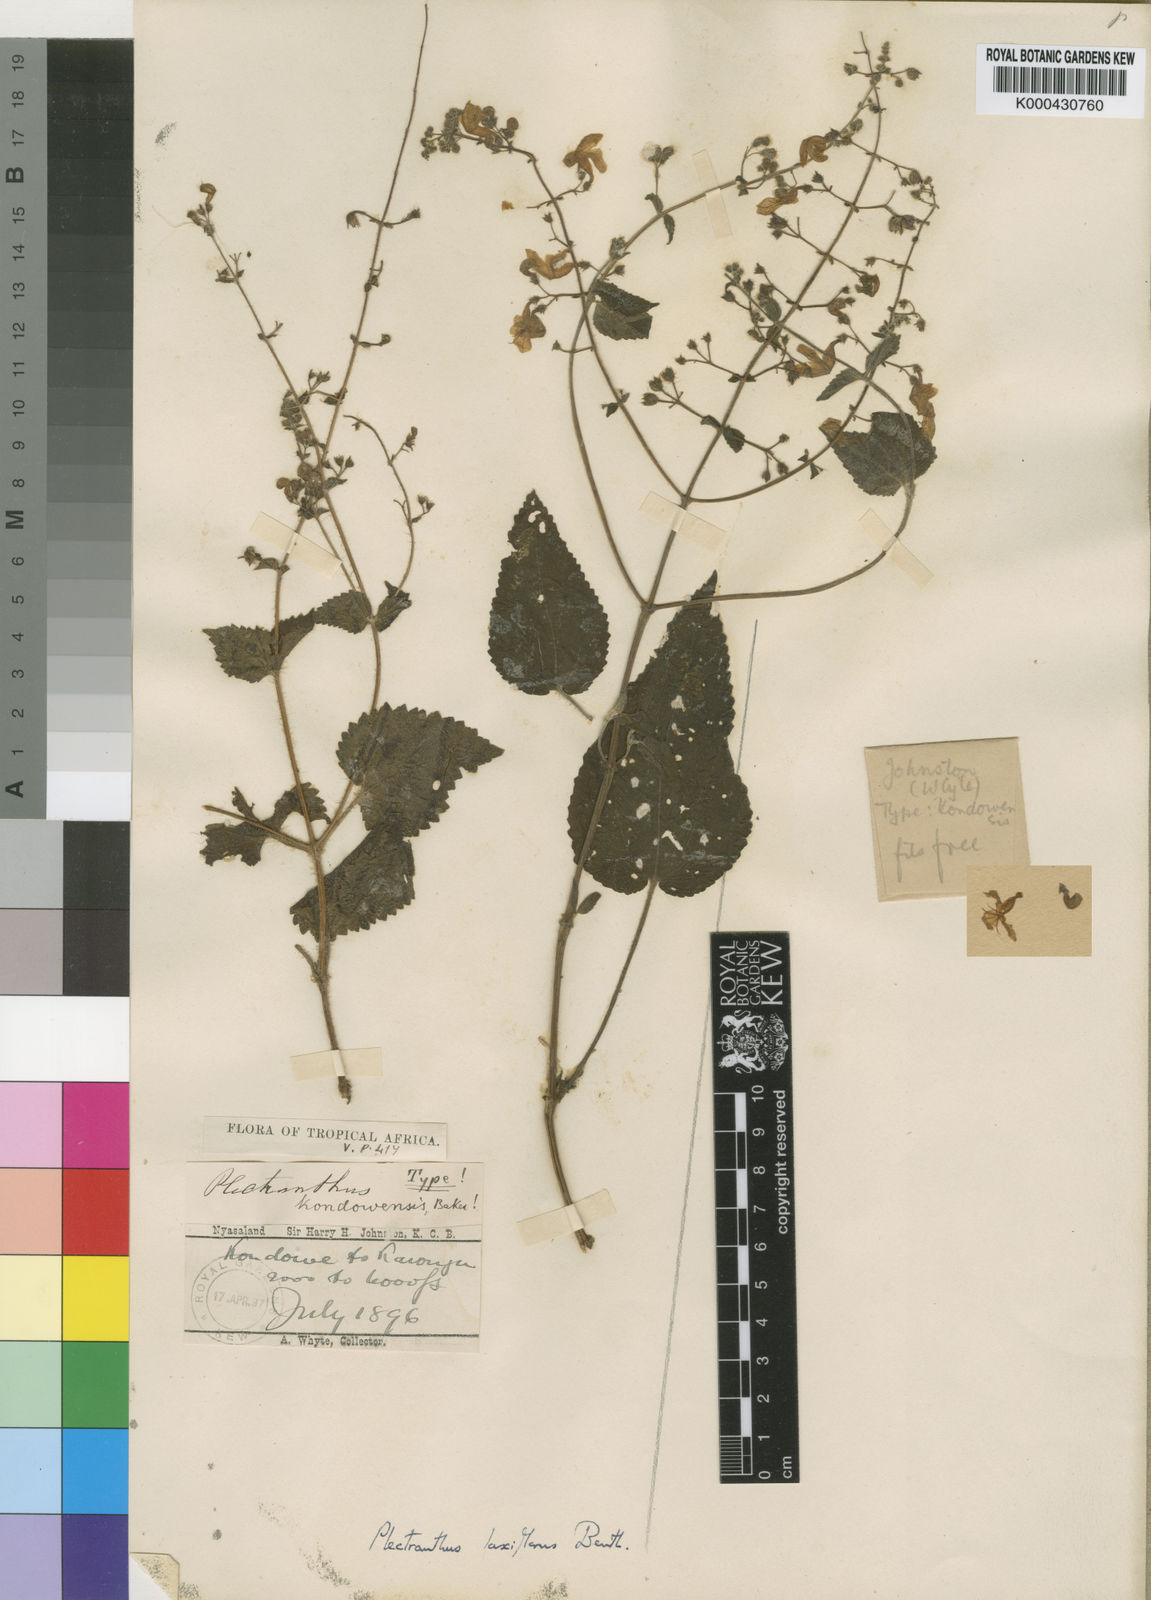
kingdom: Plantae
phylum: Tracheophyta
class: Magnoliopsida
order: Lamiales
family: Lamiaceae
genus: Equilabium
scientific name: Equilabium laxiflorum
